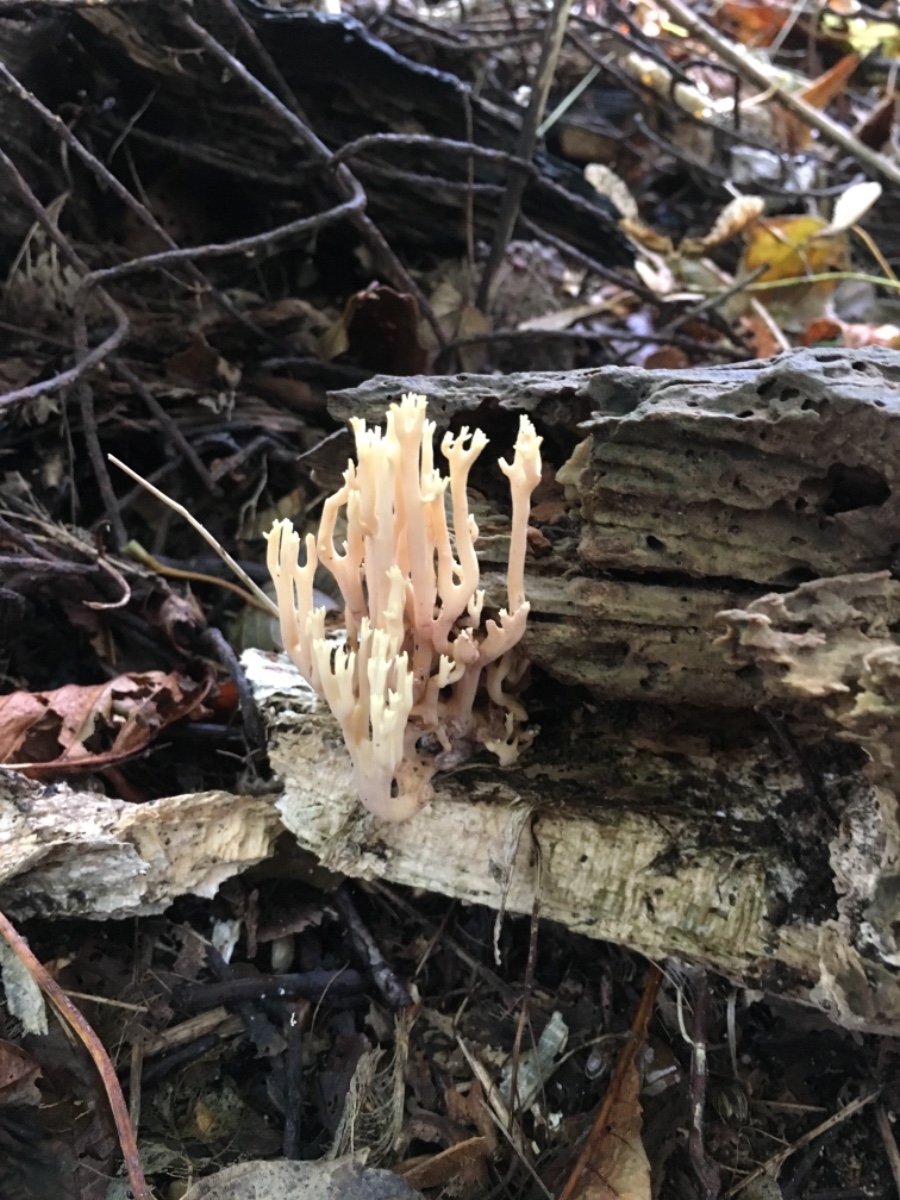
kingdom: Fungi
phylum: Basidiomycota
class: Agaricomycetes
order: Gomphales
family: Gomphaceae
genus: Ramaria
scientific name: Ramaria stricta
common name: rank koralsvamp
